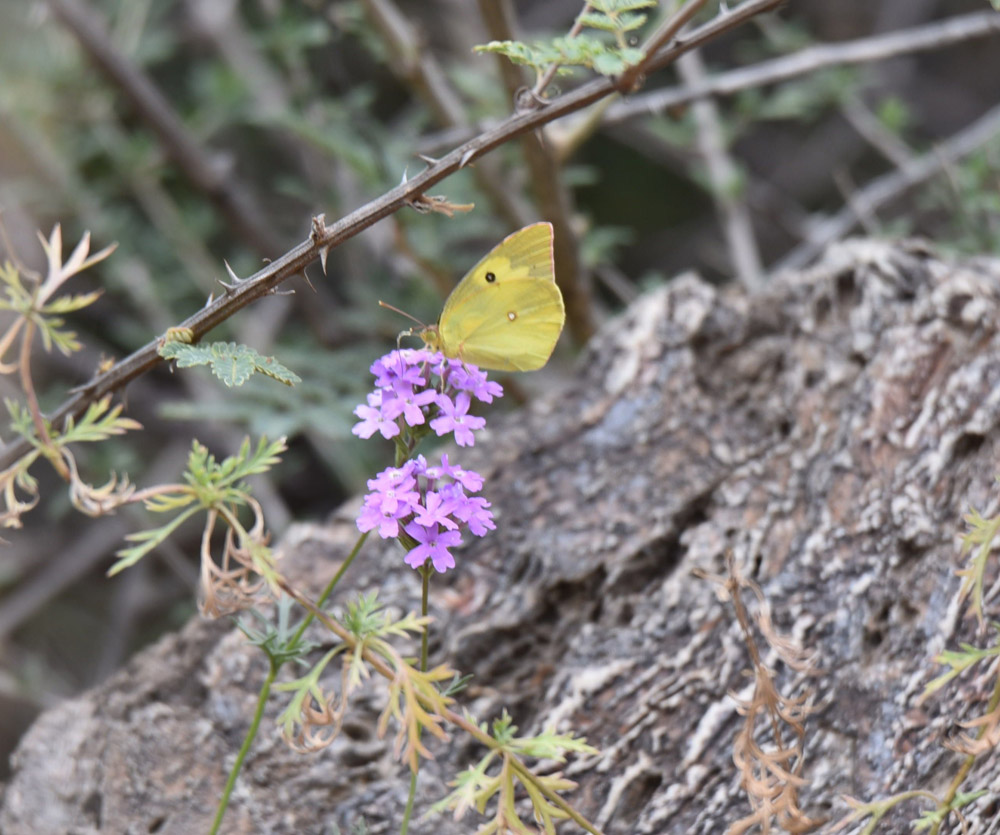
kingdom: Animalia
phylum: Arthropoda
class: Insecta
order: Lepidoptera
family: Pieridae
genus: Zerene
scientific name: Zerene cesonia
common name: Southern dogface
